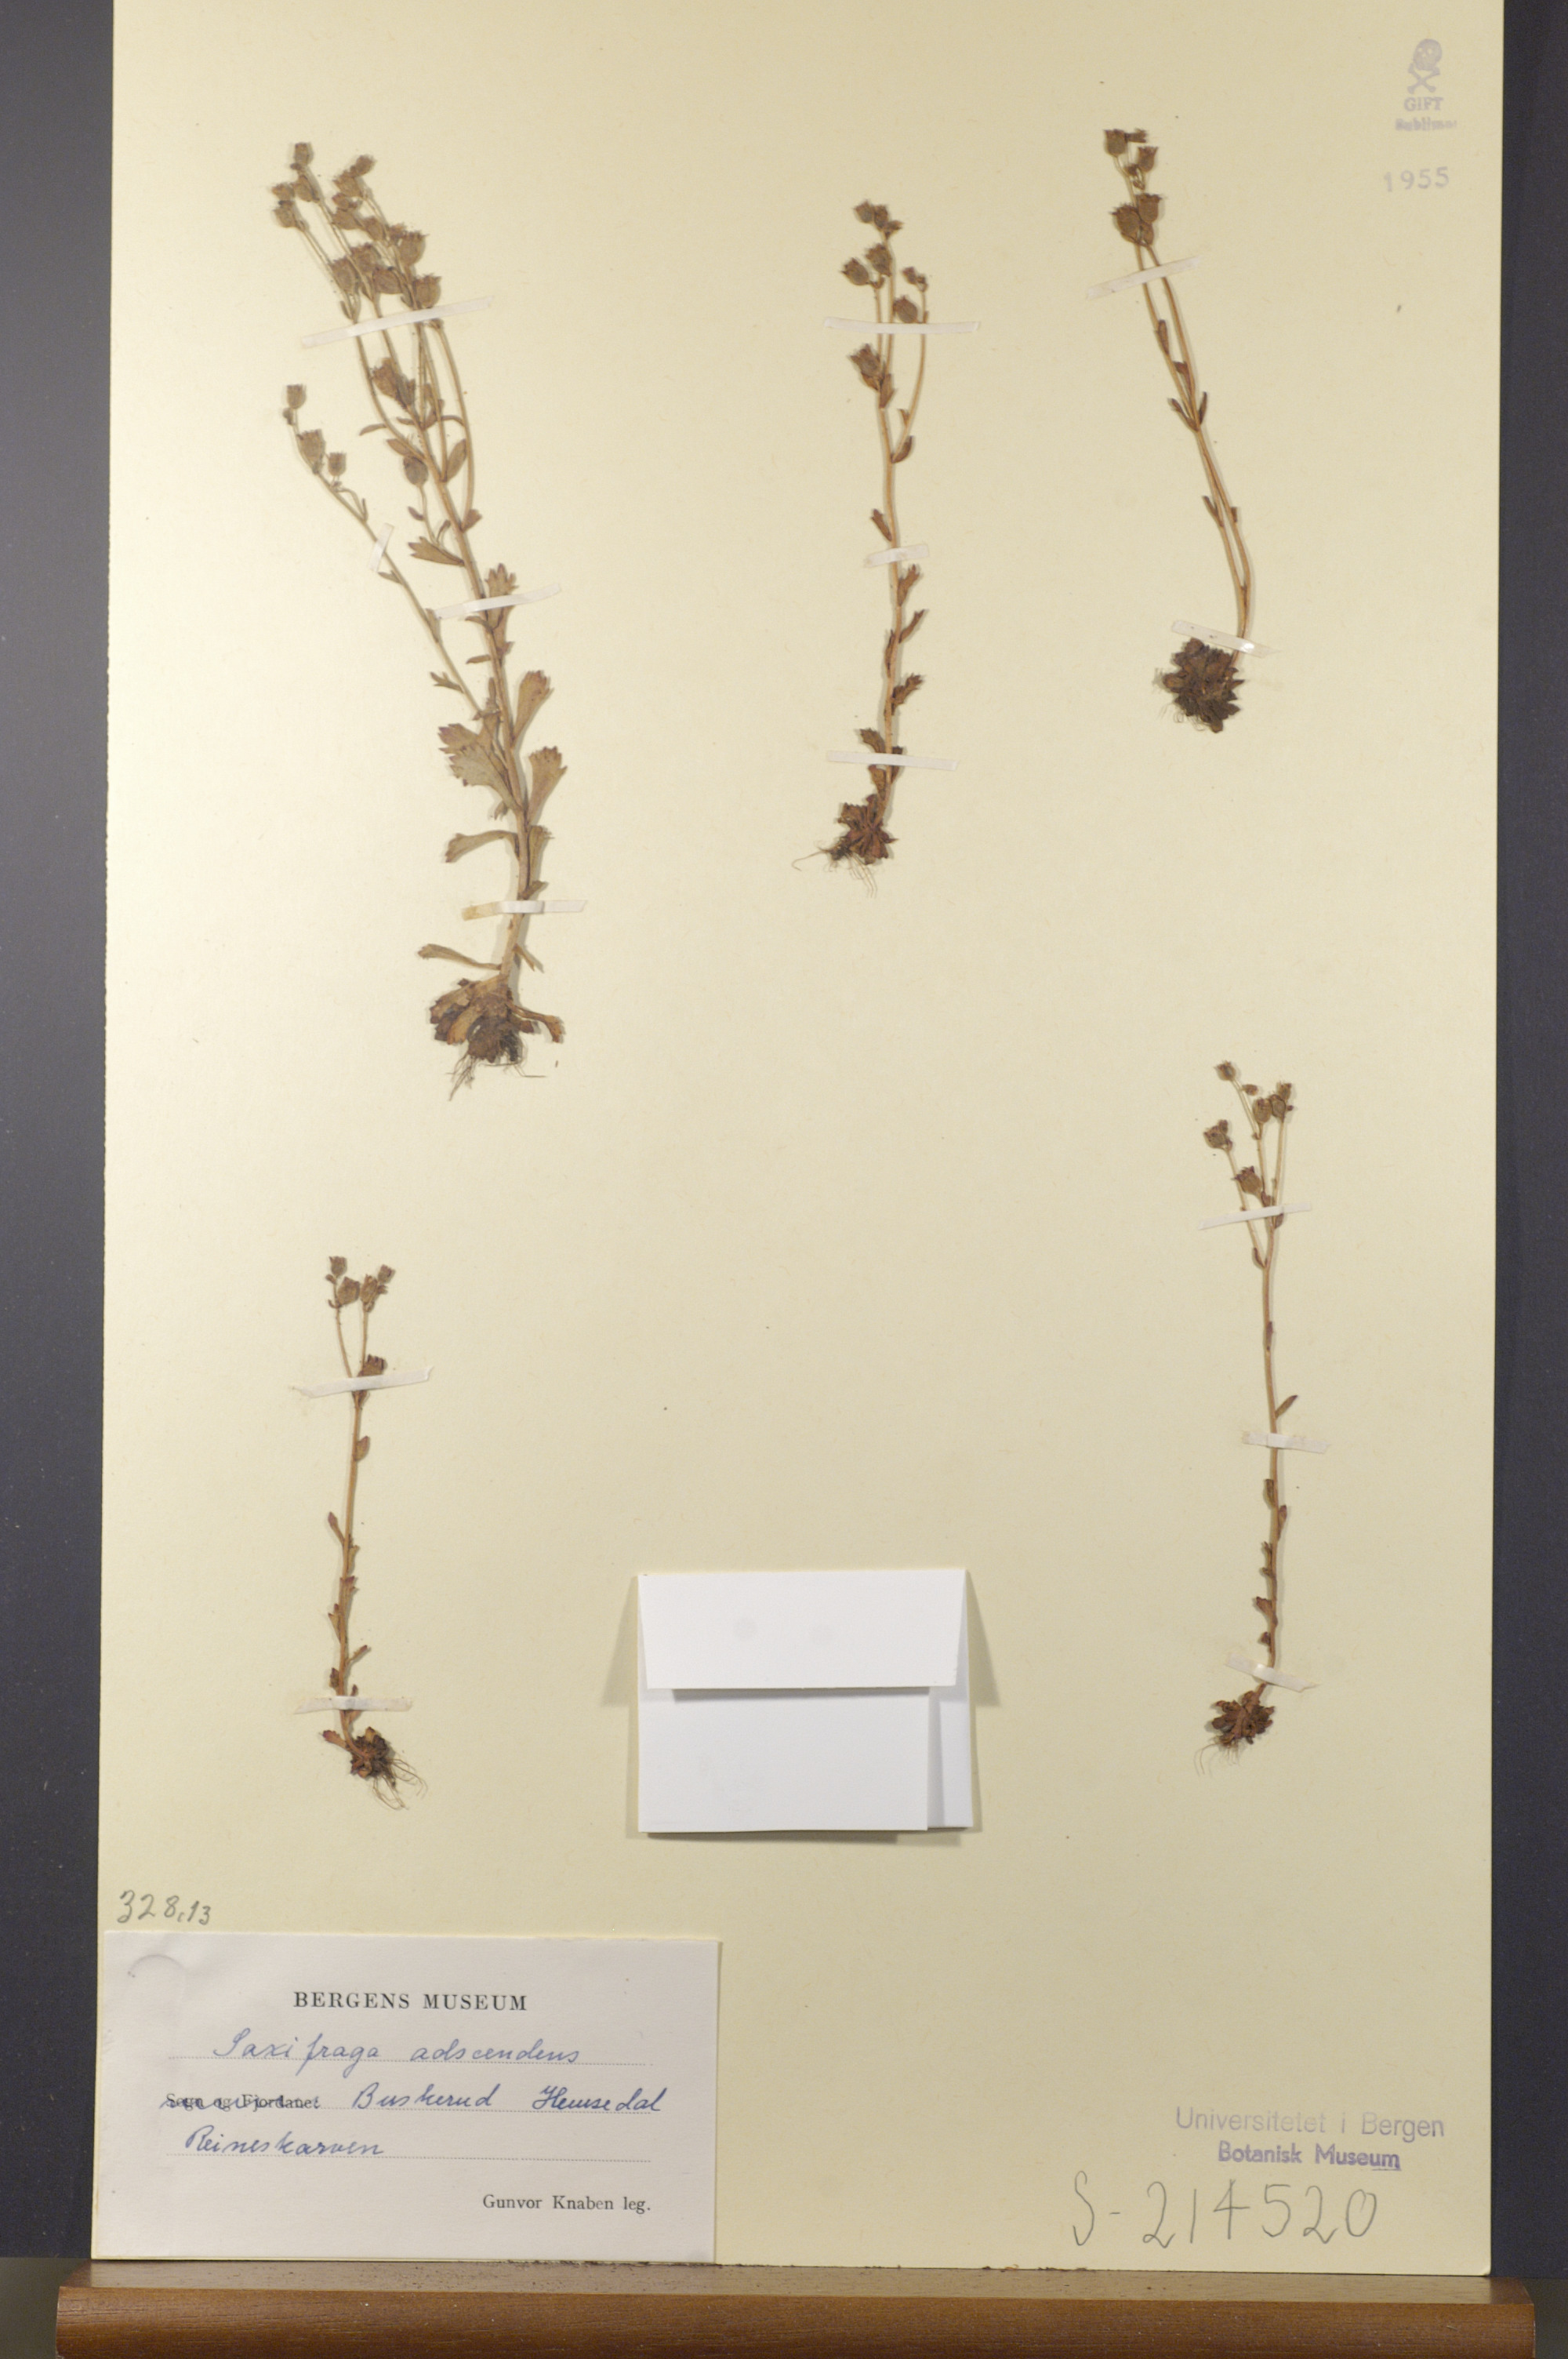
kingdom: Plantae
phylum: Tracheophyta
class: Magnoliopsida
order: Saxifragales
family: Saxifragaceae
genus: Saxifraga
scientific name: Saxifraga adscendens
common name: Ascending saxifrage
